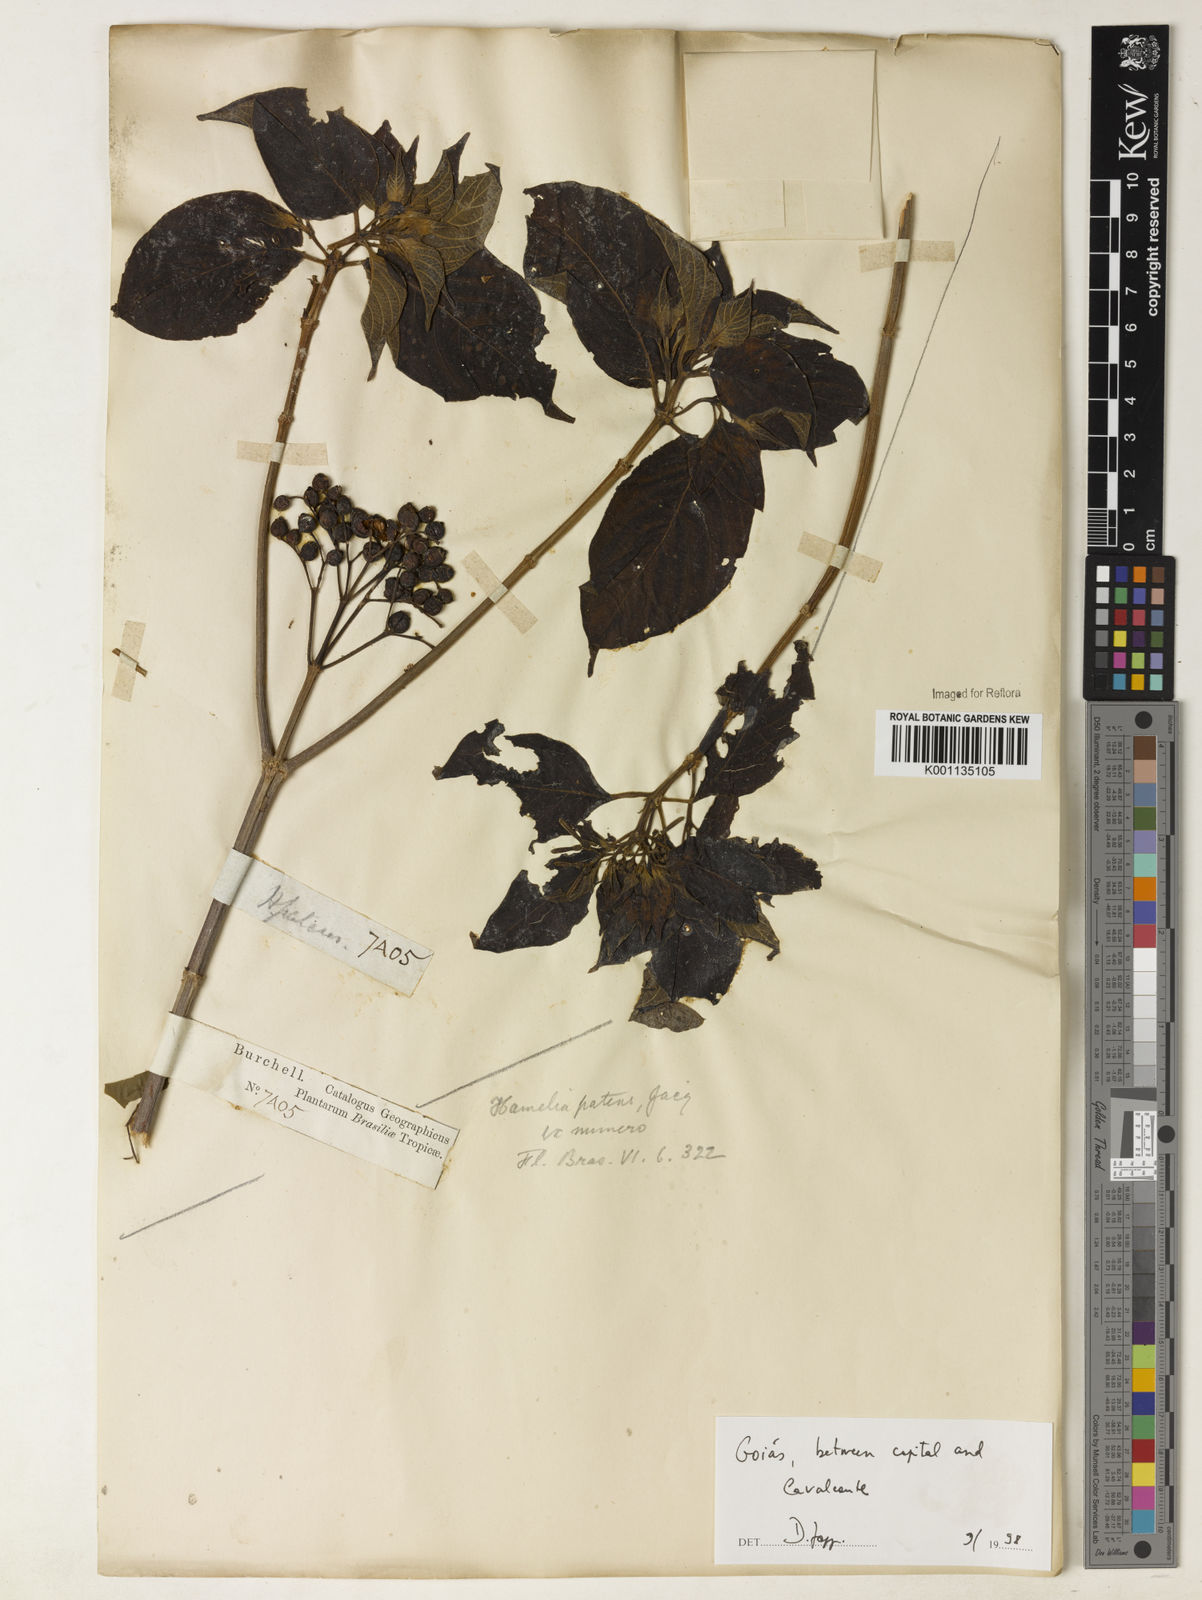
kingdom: Plantae
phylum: Tracheophyta
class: Magnoliopsida
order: Gentianales
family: Rubiaceae
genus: Hamelia
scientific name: Hamelia patens
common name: Redhead
